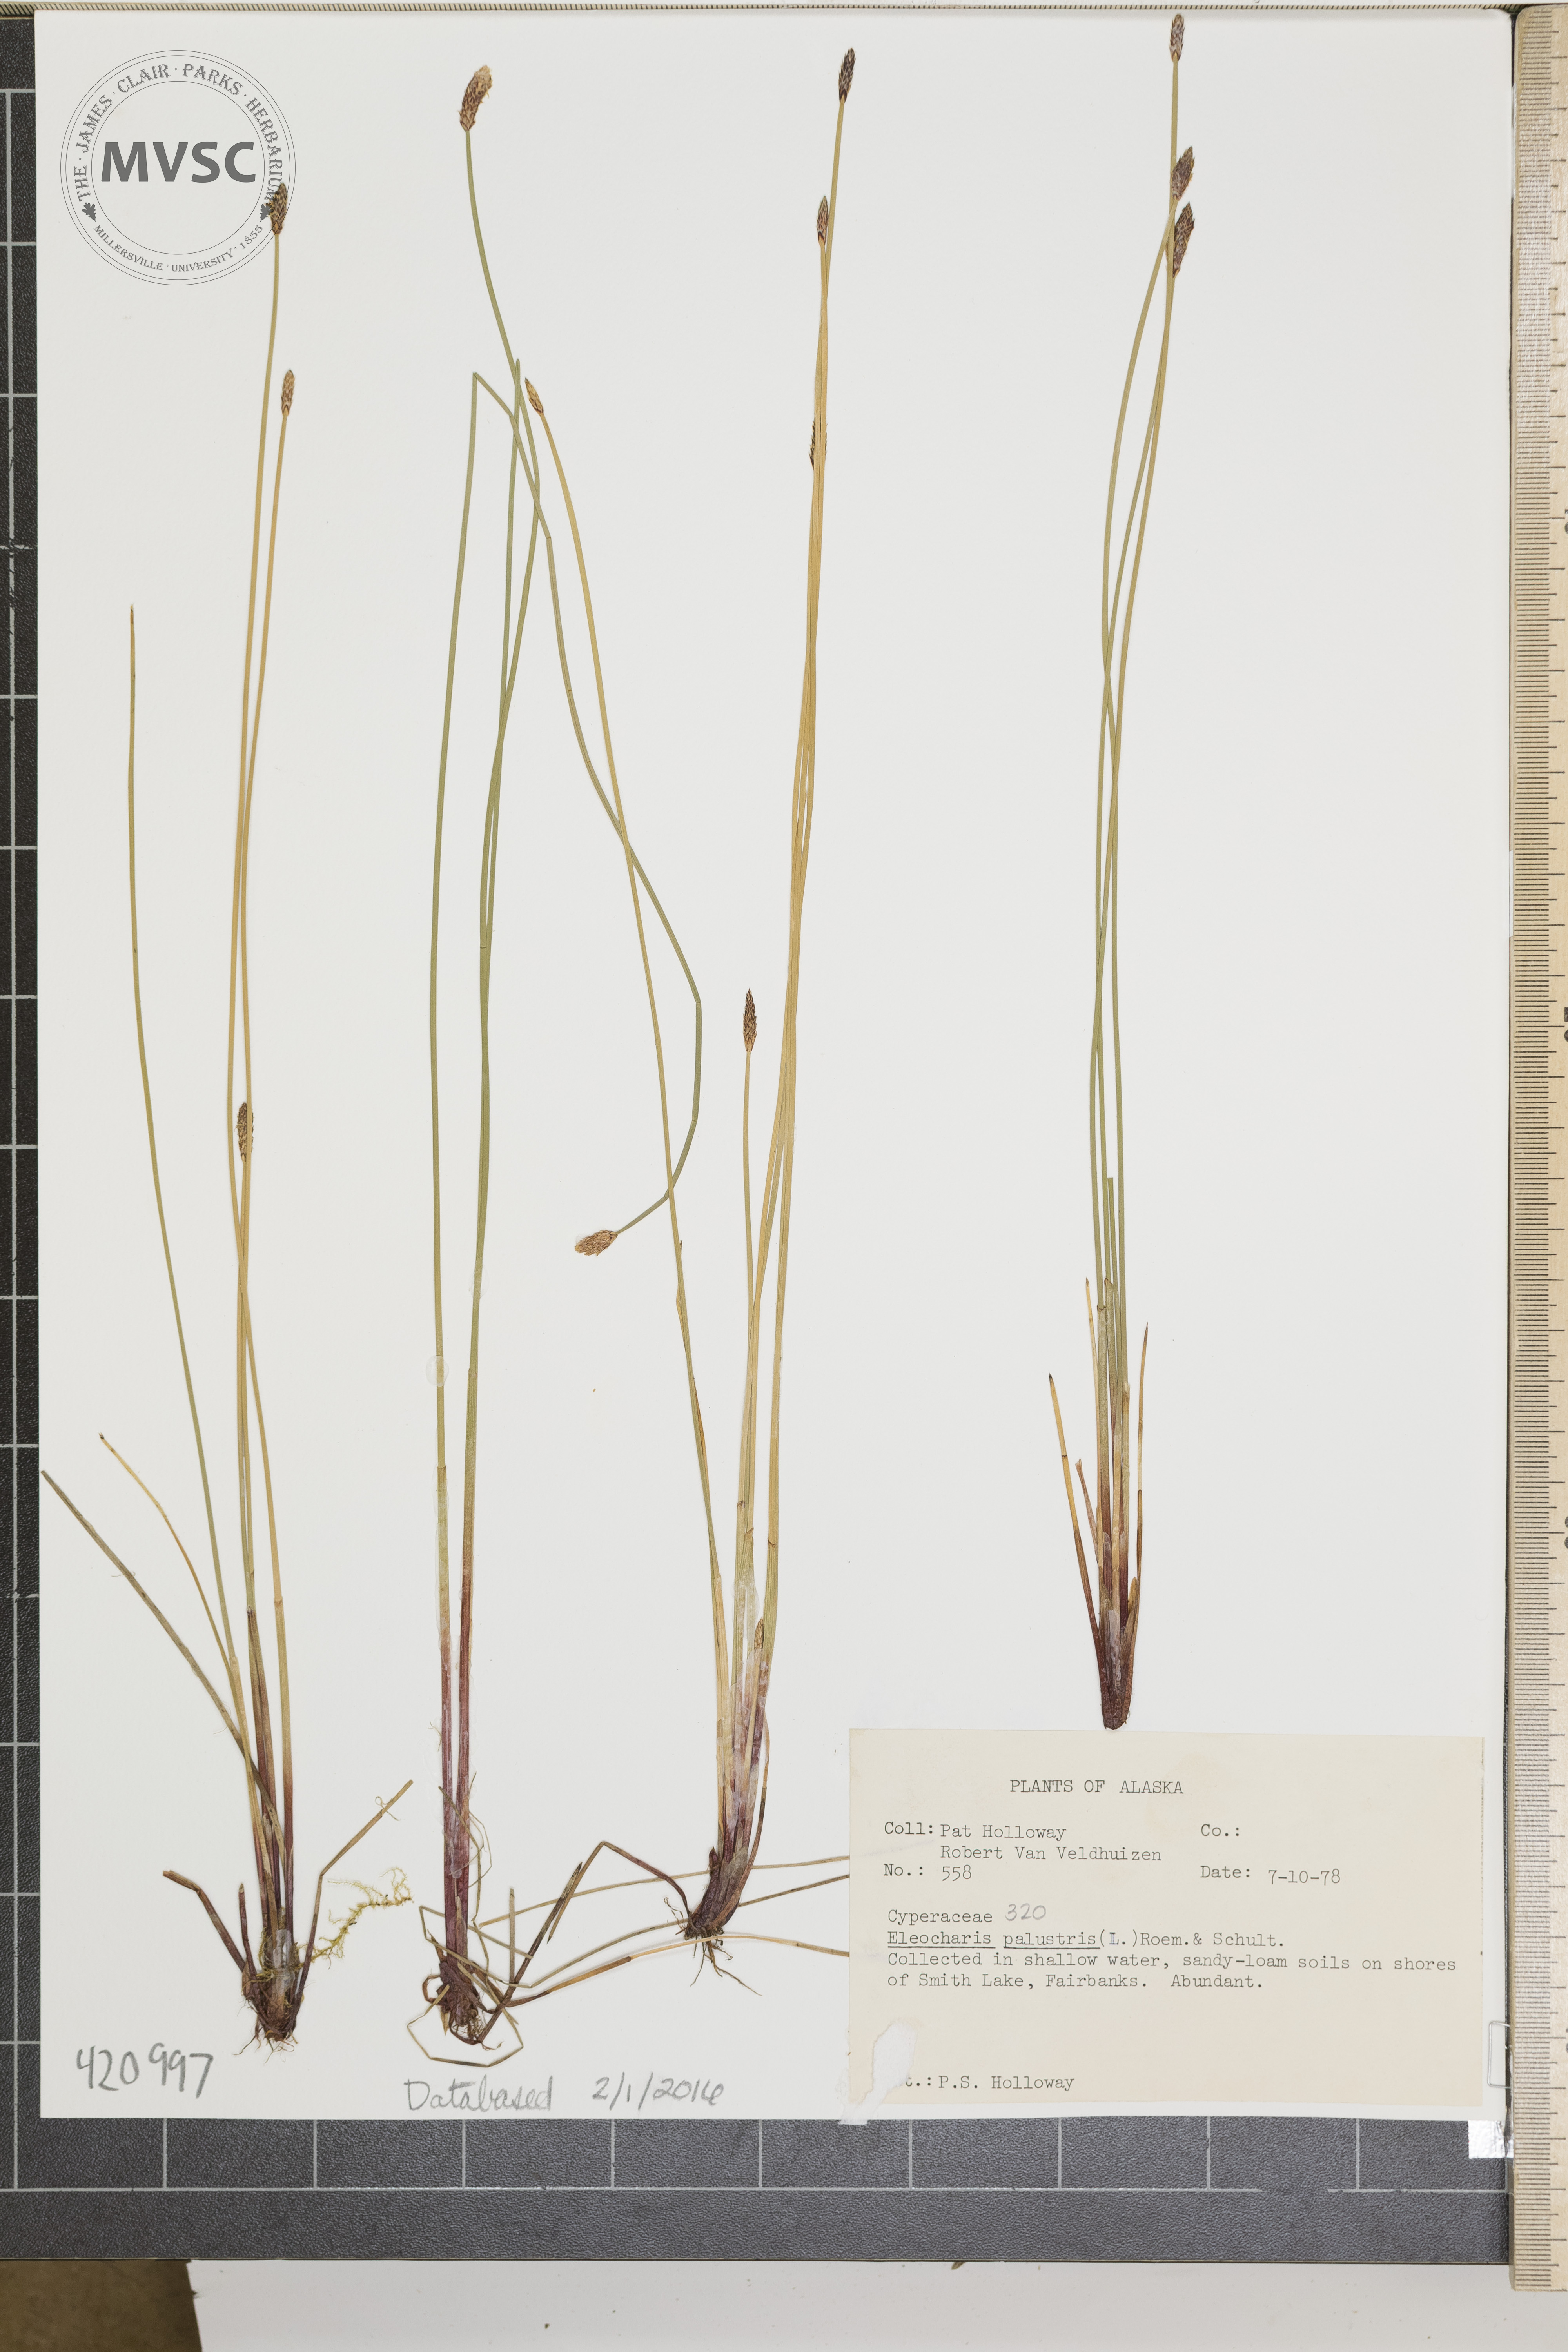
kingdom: Plantae
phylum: Tracheophyta
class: Liliopsida
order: Poales
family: Cyperaceae
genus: Eleocharis
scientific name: Eleocharis palustris
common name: Common spike-rush
